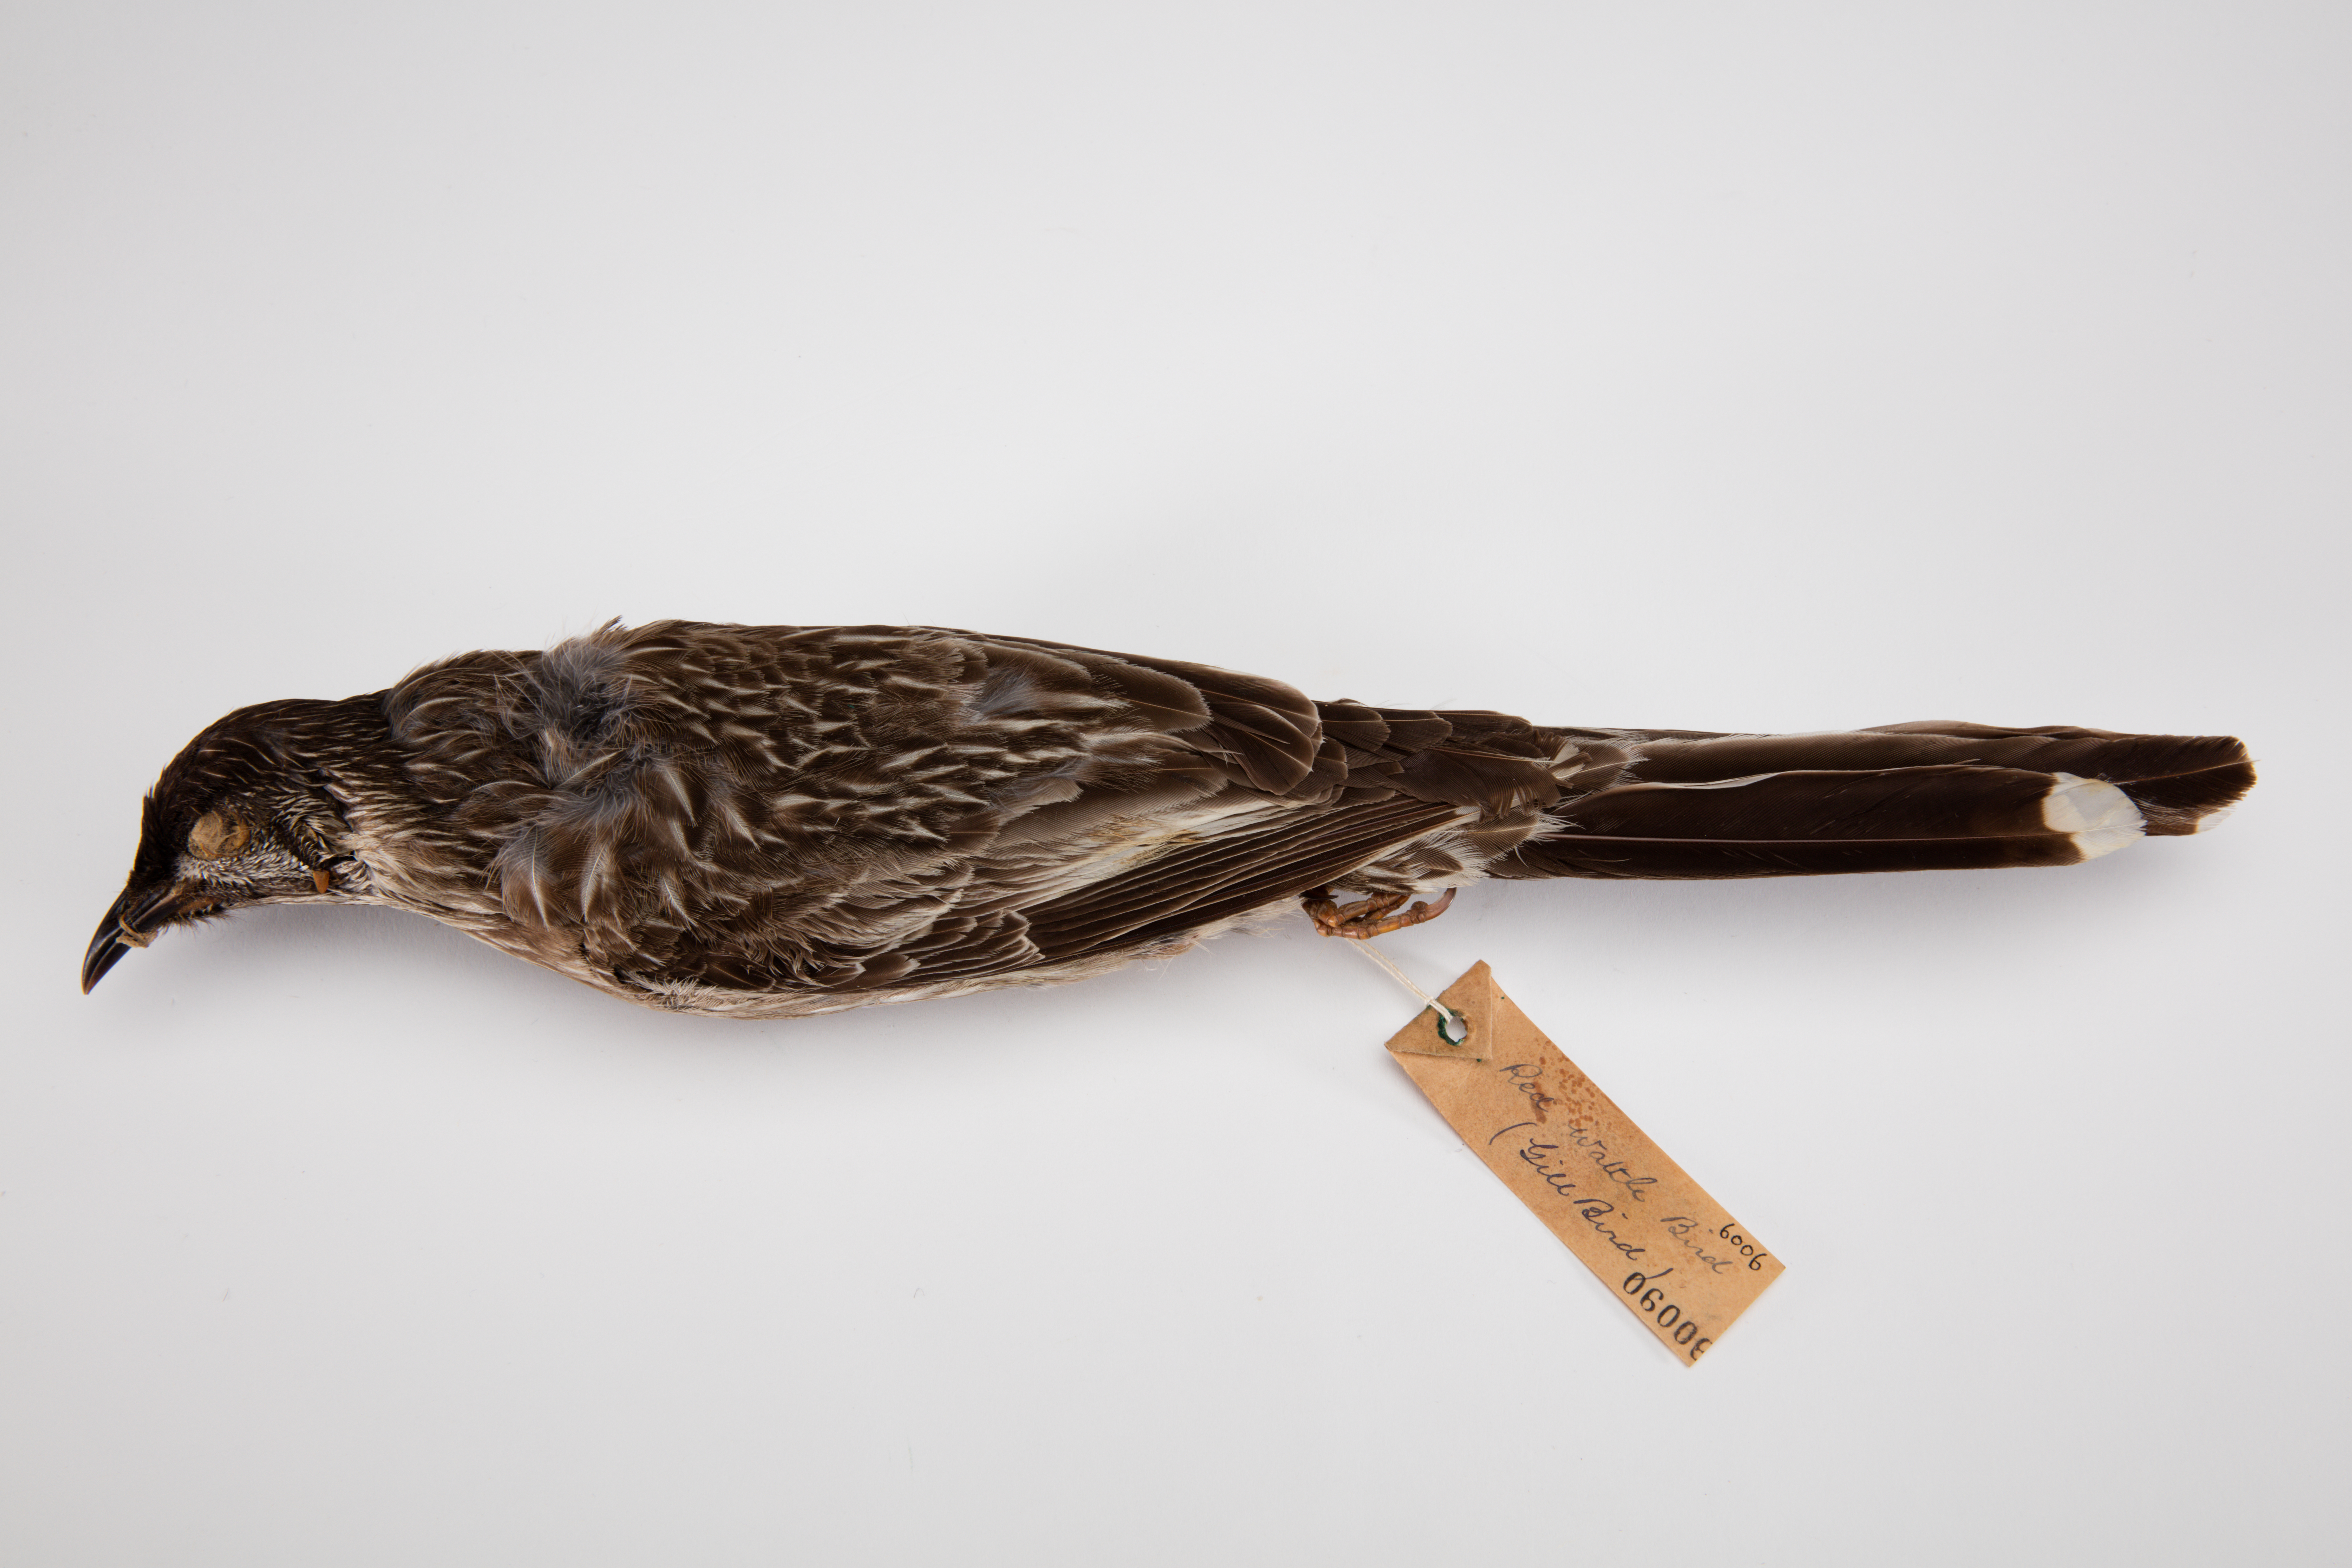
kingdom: Animalia
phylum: Chordata
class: Aves
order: Passeriformes
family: Meliphagidae
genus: Anthochaera
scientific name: Anthochaera carunculata
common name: Red wattlebird
